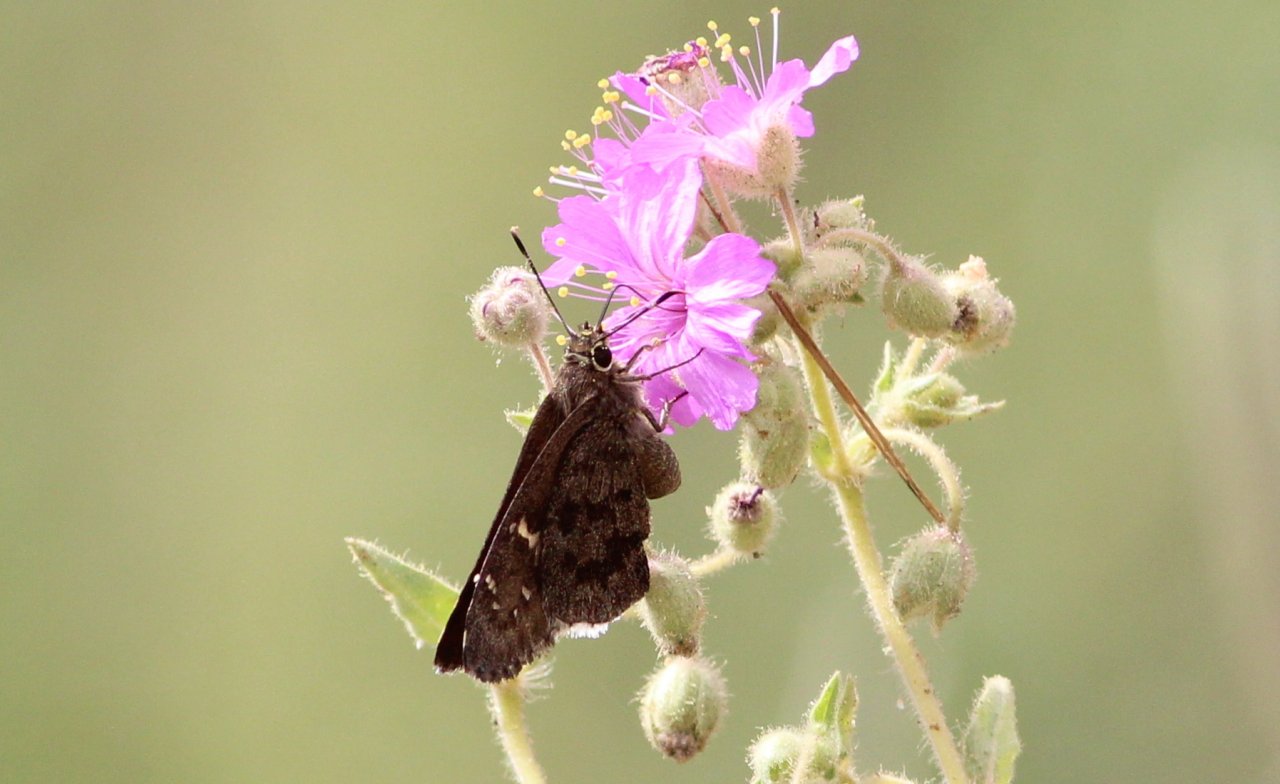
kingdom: Animalia
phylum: Arthropoda
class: Insecta
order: Lepidoptera
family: Hesperiidae
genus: Cogia
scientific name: Cogia hippalus
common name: Acacia Skipper
